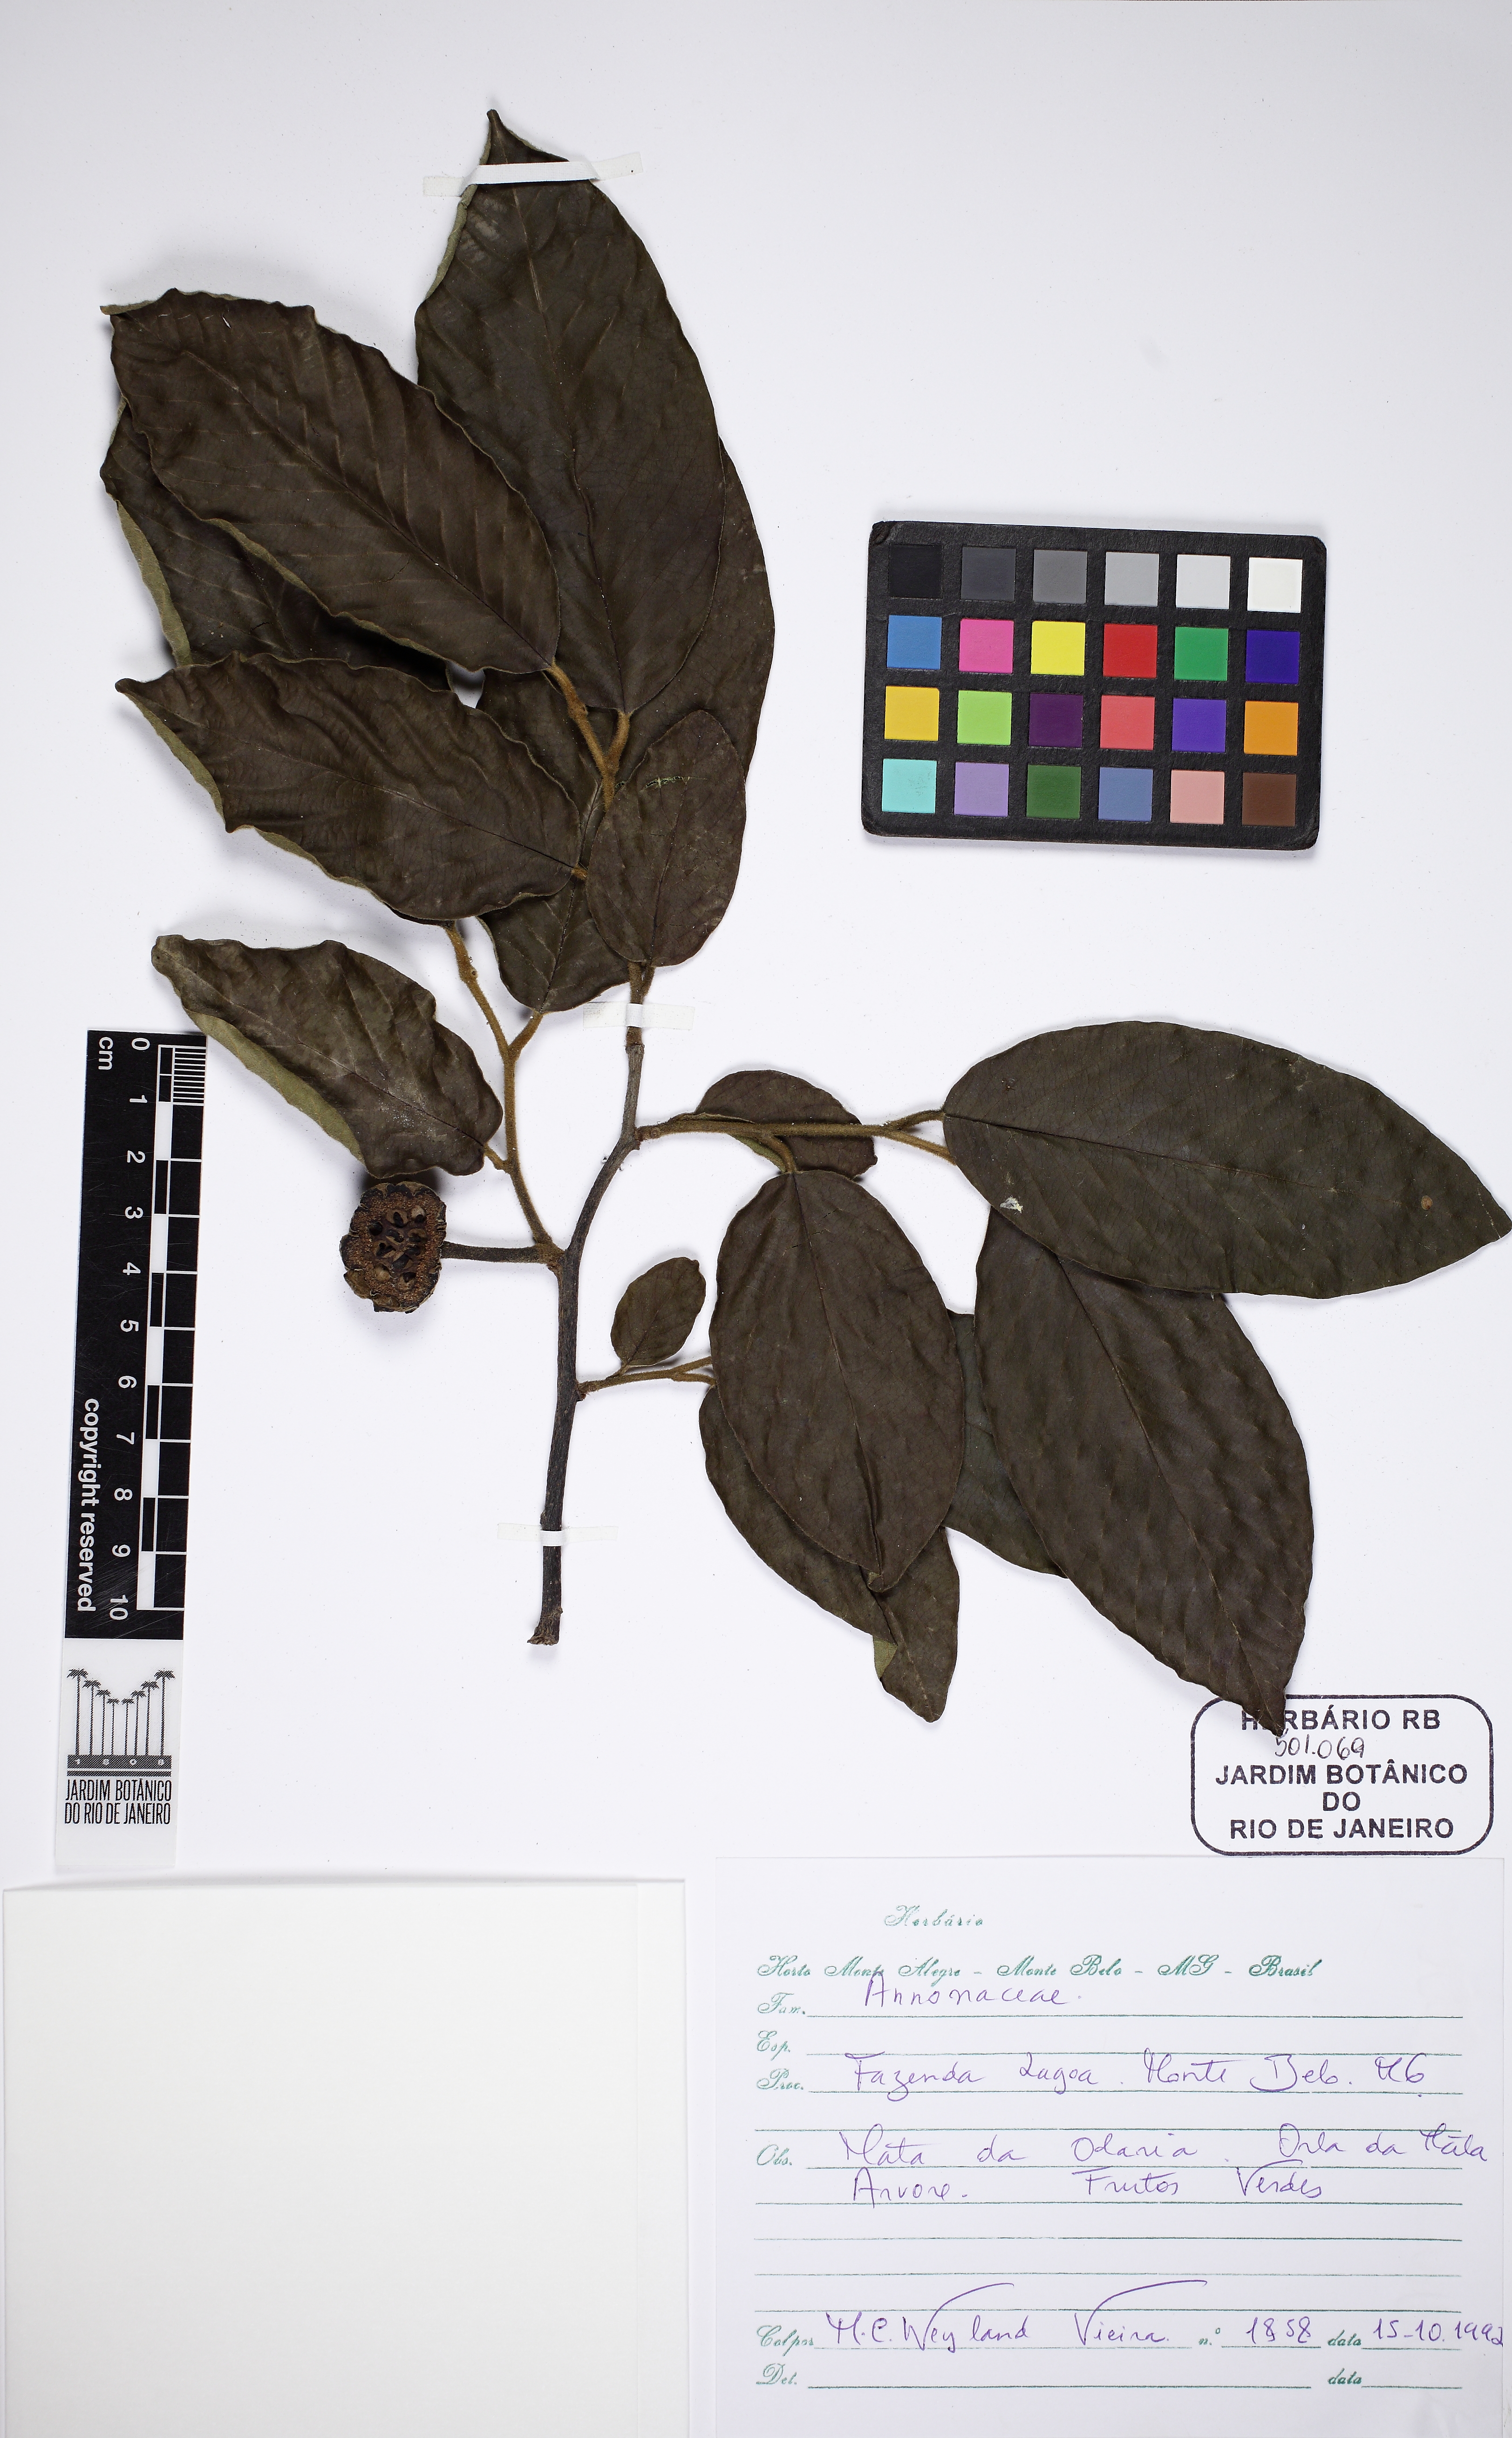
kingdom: Plantae
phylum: Tracheophyta
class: Magnoliopsida
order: Magnoliales
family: Annonaceae
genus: Annona
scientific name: Annona sylvatica
